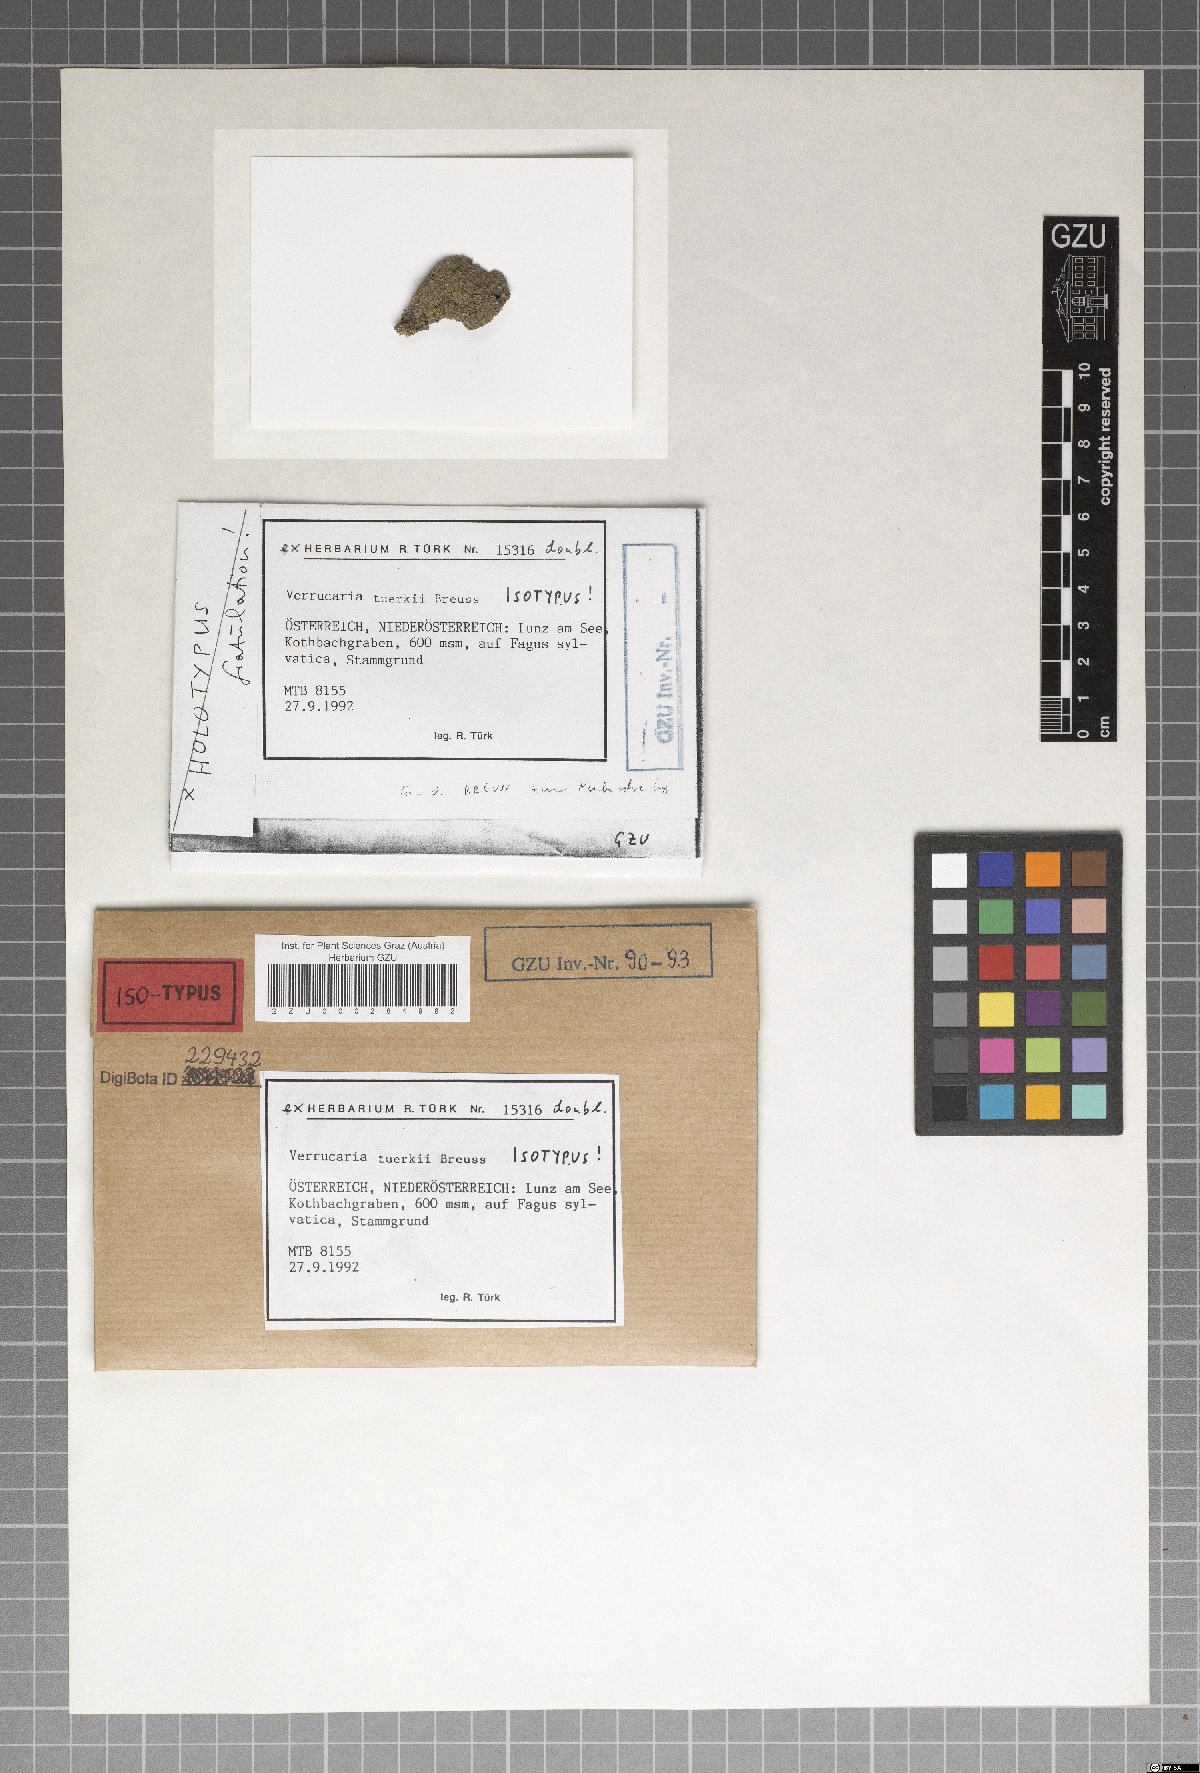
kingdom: Fungi
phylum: Ascomycota
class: Eurotiomycetes
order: Verrucariales
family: Verrucariaceae
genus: Verrucaria
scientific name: Verrucaria tuerkii
